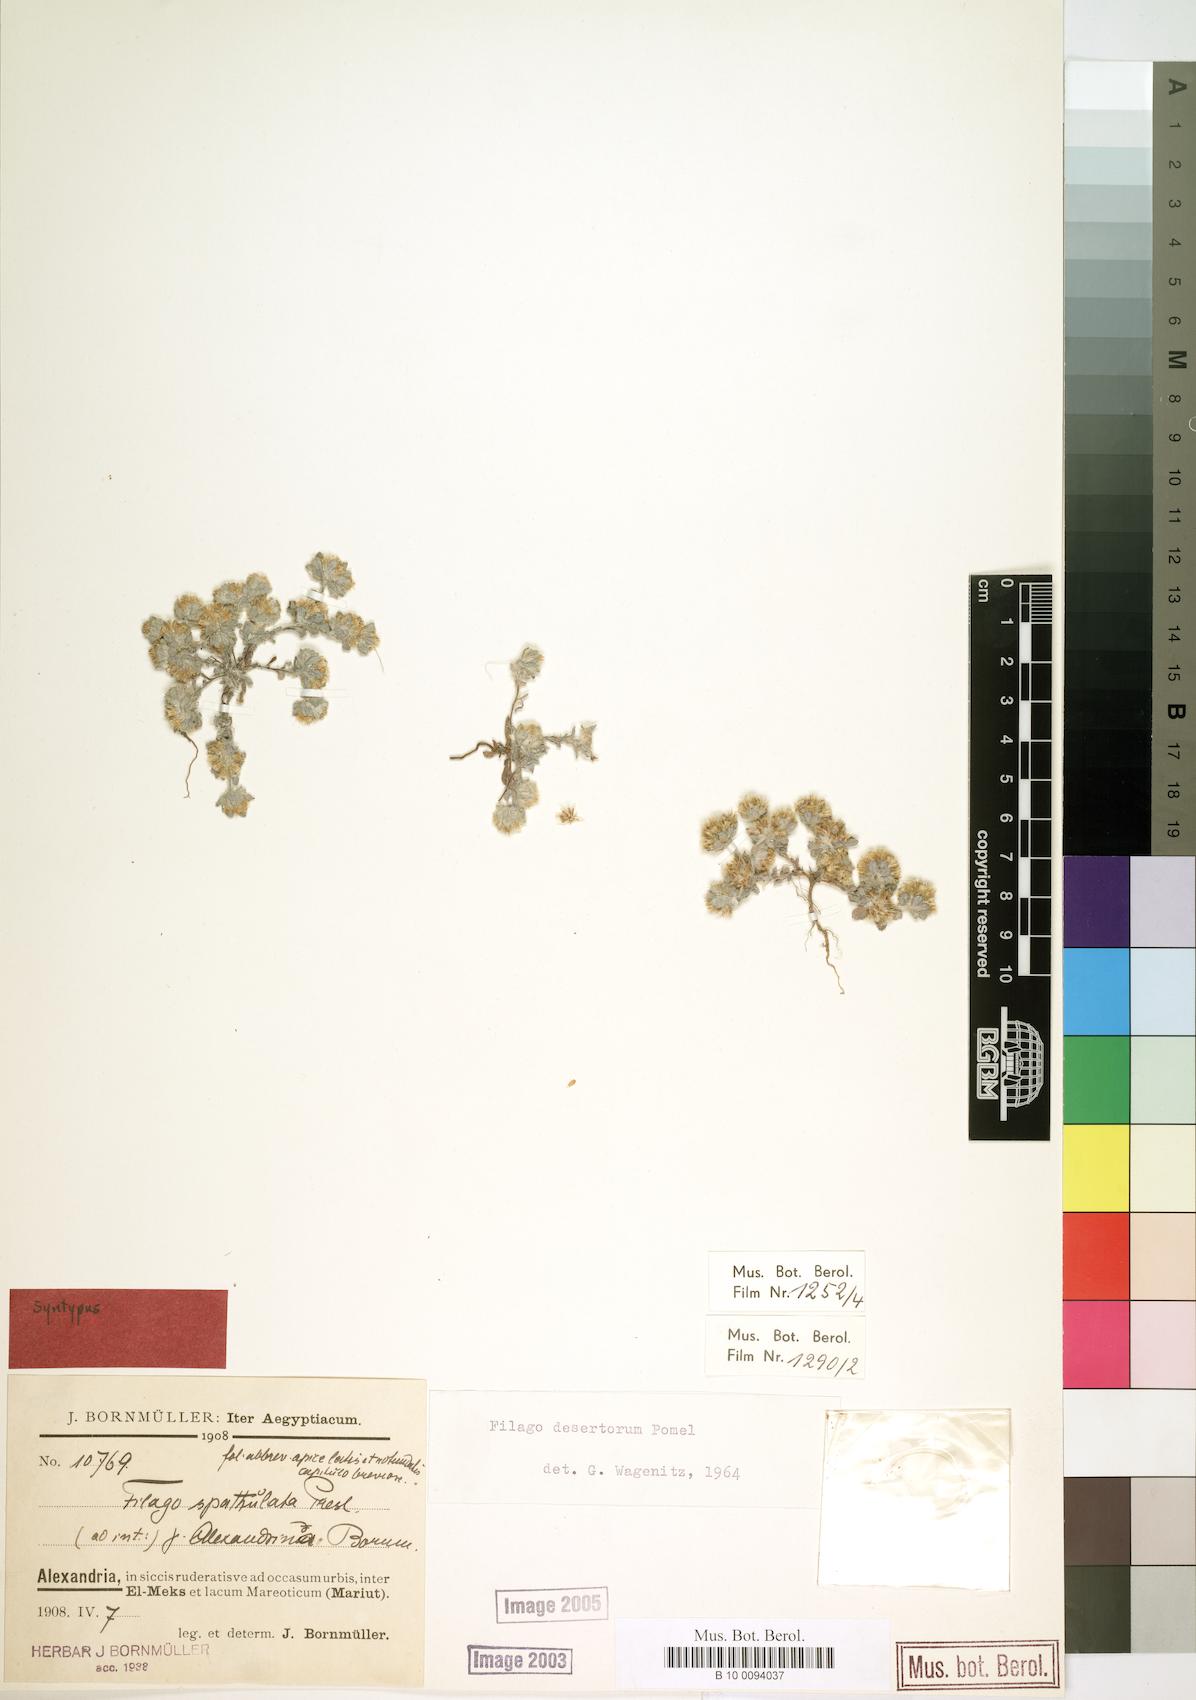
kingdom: Plantae
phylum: Tracheophyta
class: Magnoliopsida
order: Asterales
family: Asteraceae
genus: Filago
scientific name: Filago desertorum
